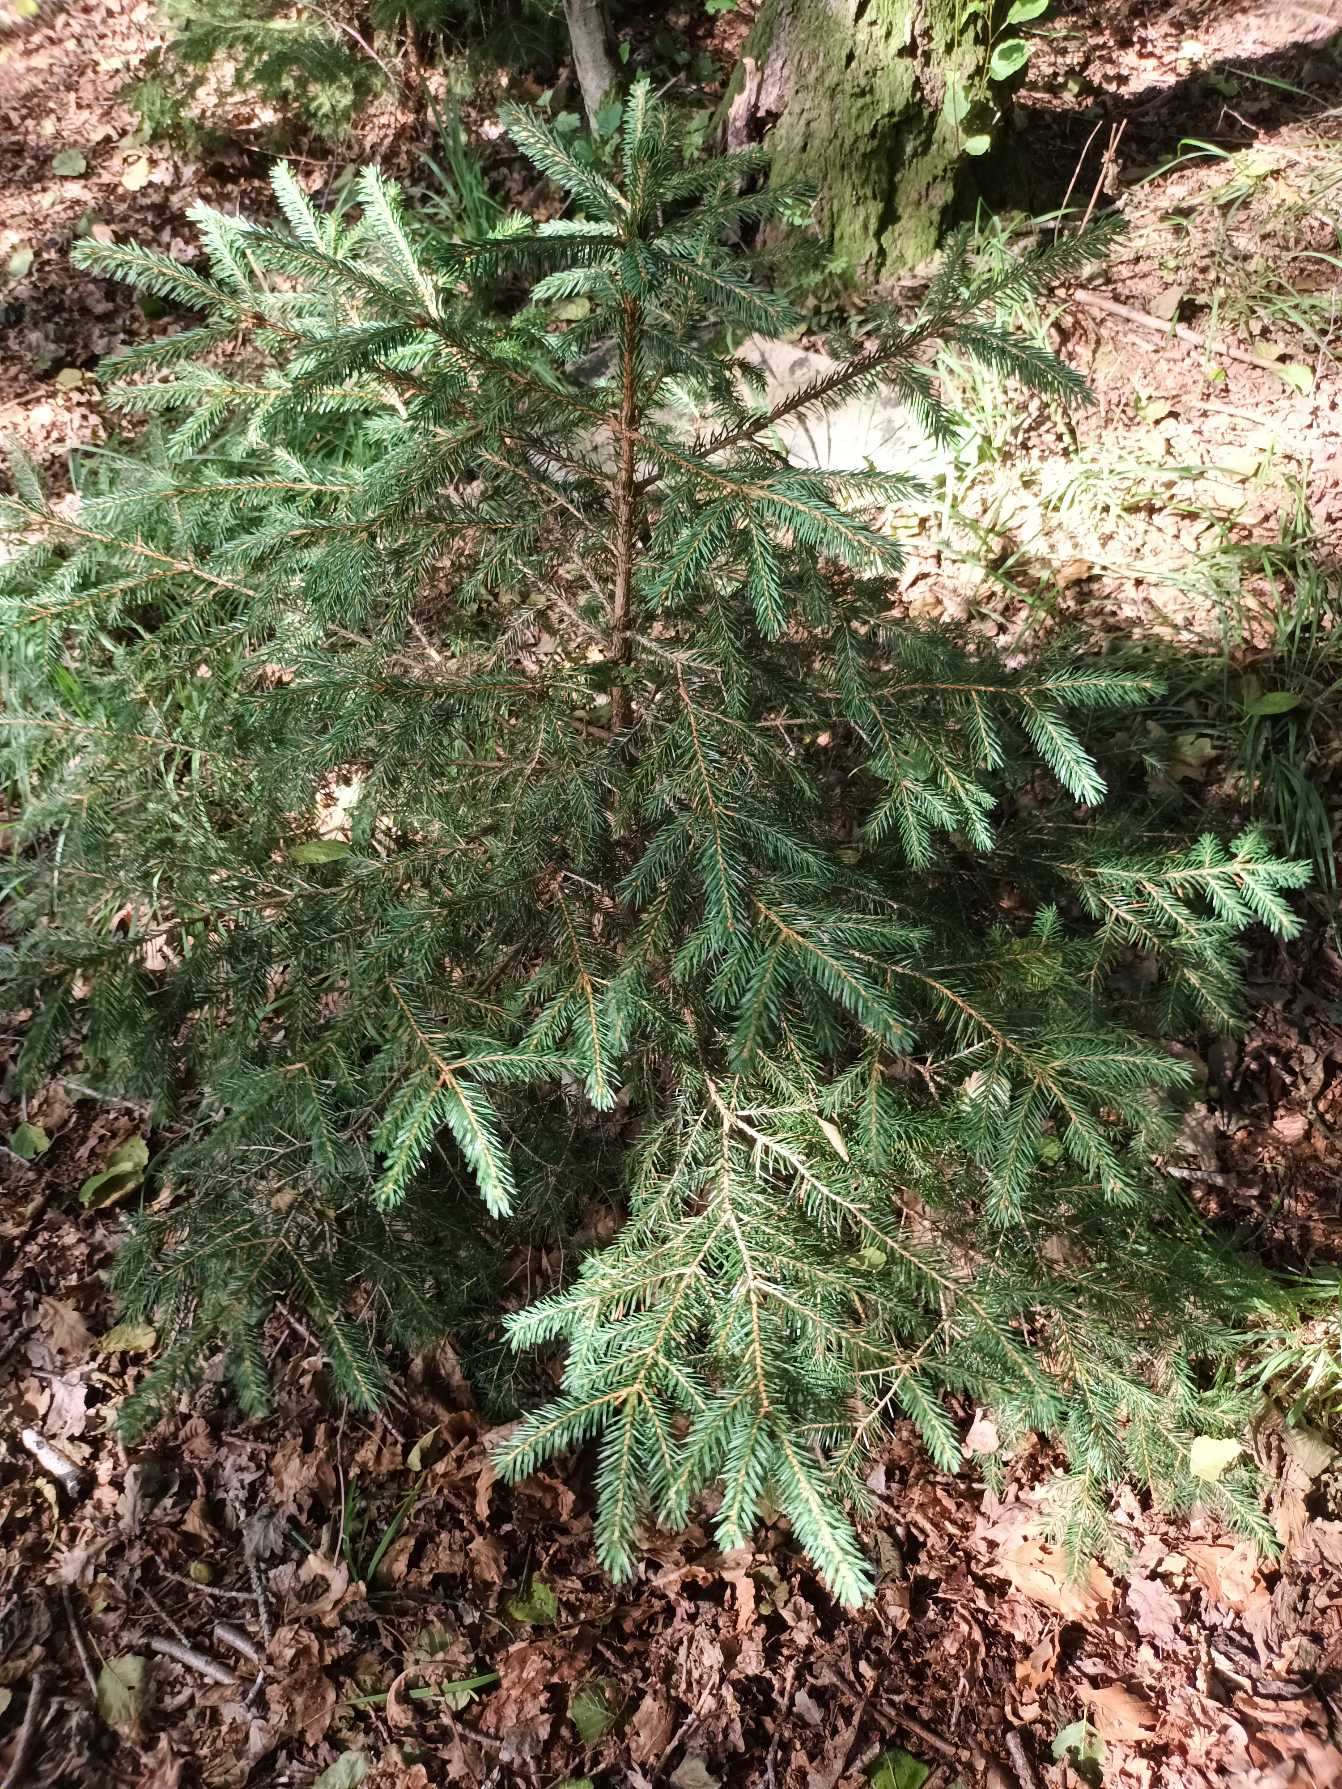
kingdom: Plantae
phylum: Tracheophyta
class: Pinopsida
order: Pinales
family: Pinaceae
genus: Picea
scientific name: Picea abies
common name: Rød-gran
